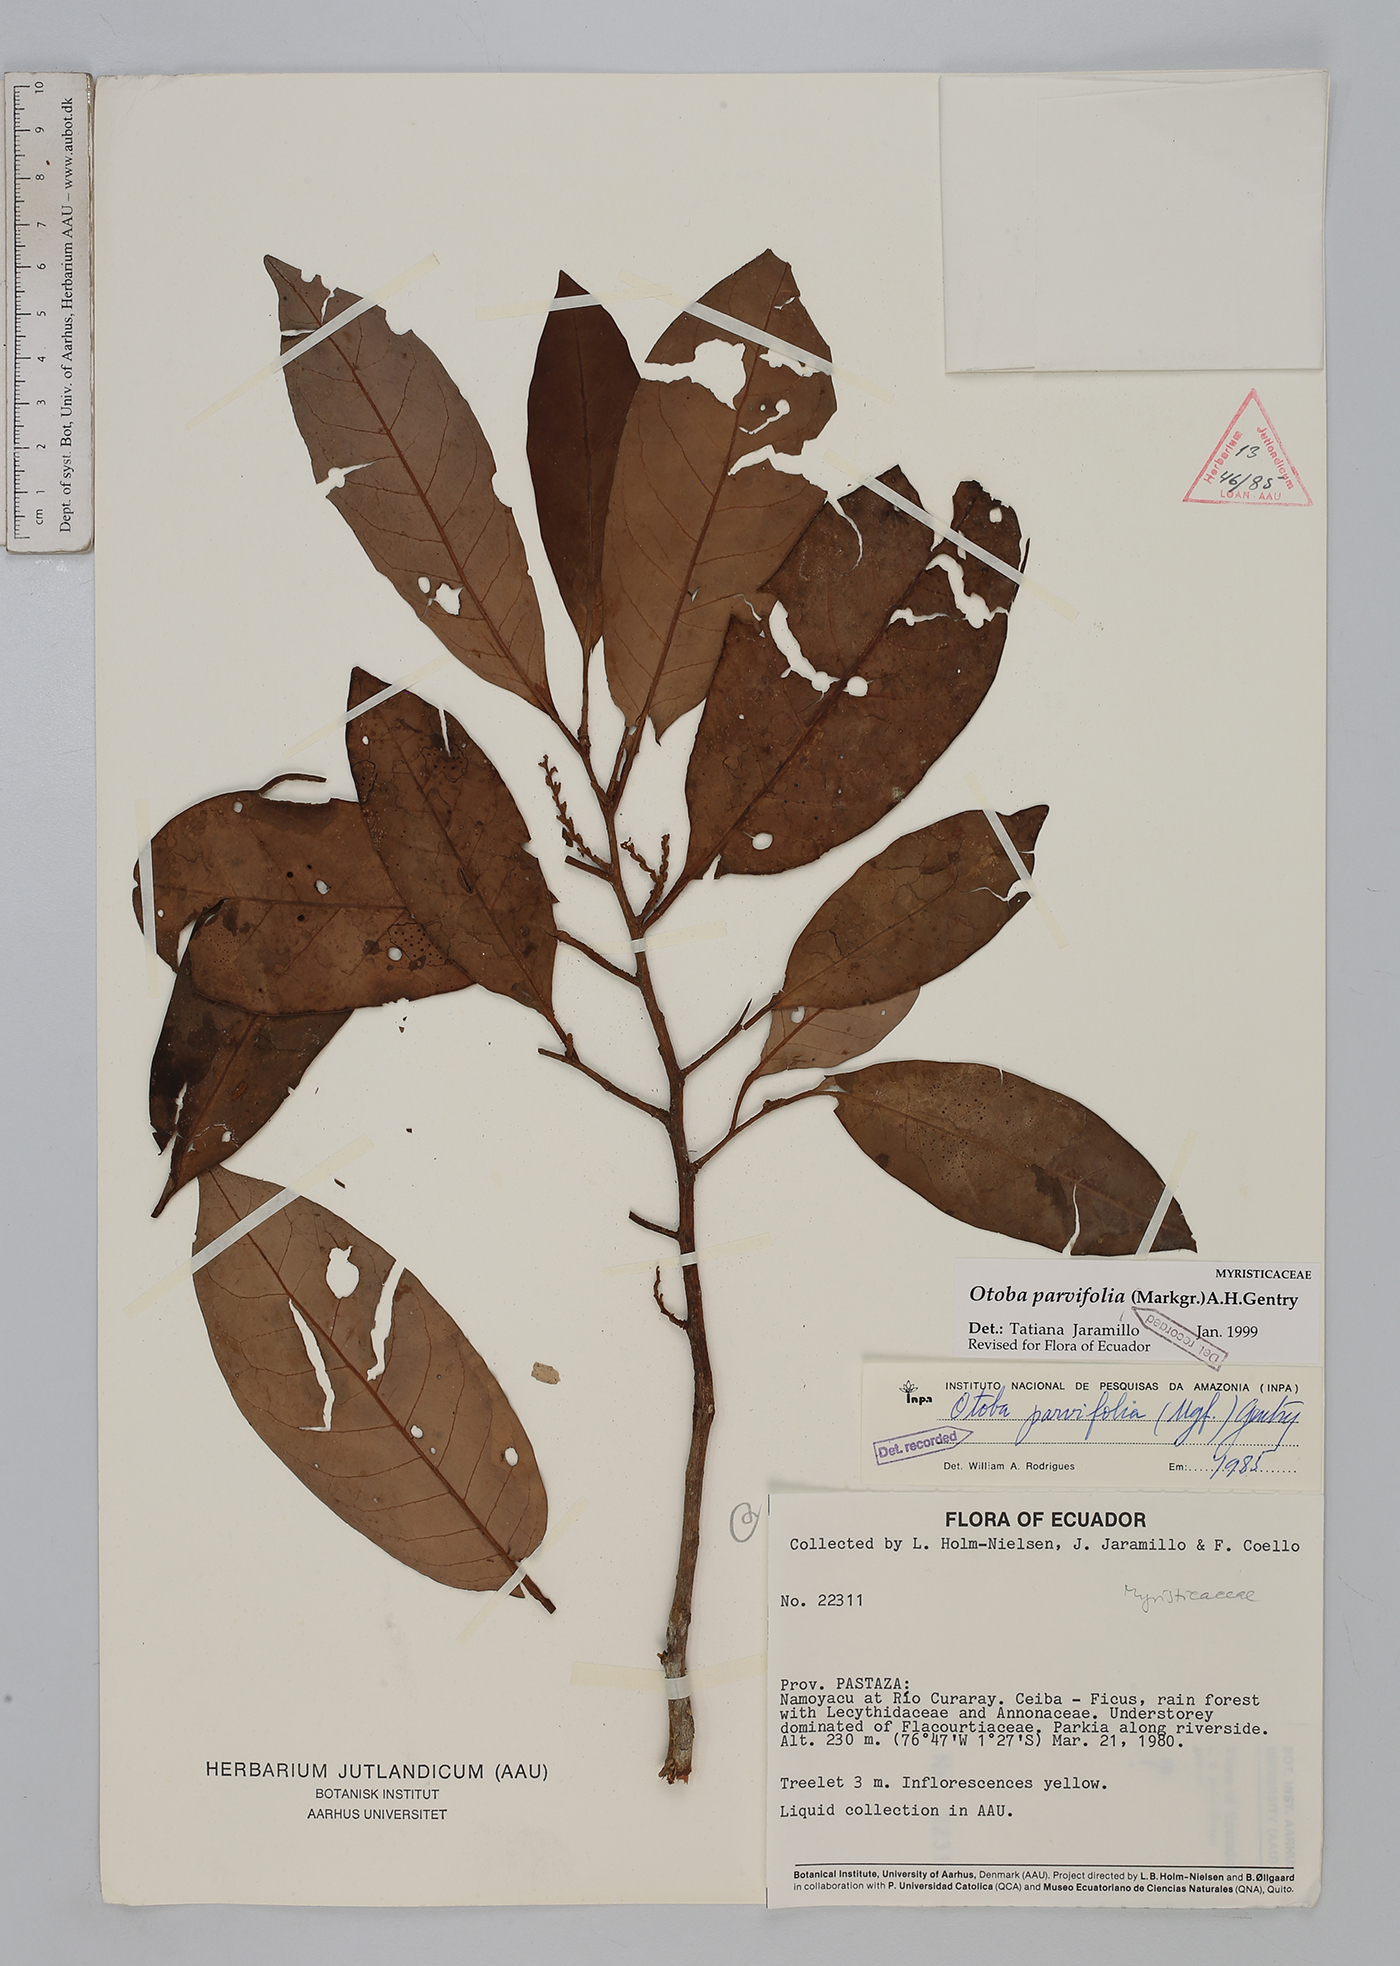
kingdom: Plantae
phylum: Tracheophyta
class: Magnoliopsida
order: Magnoliales
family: Myristicaceae
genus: Otoba
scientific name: Otoba parvifolia
